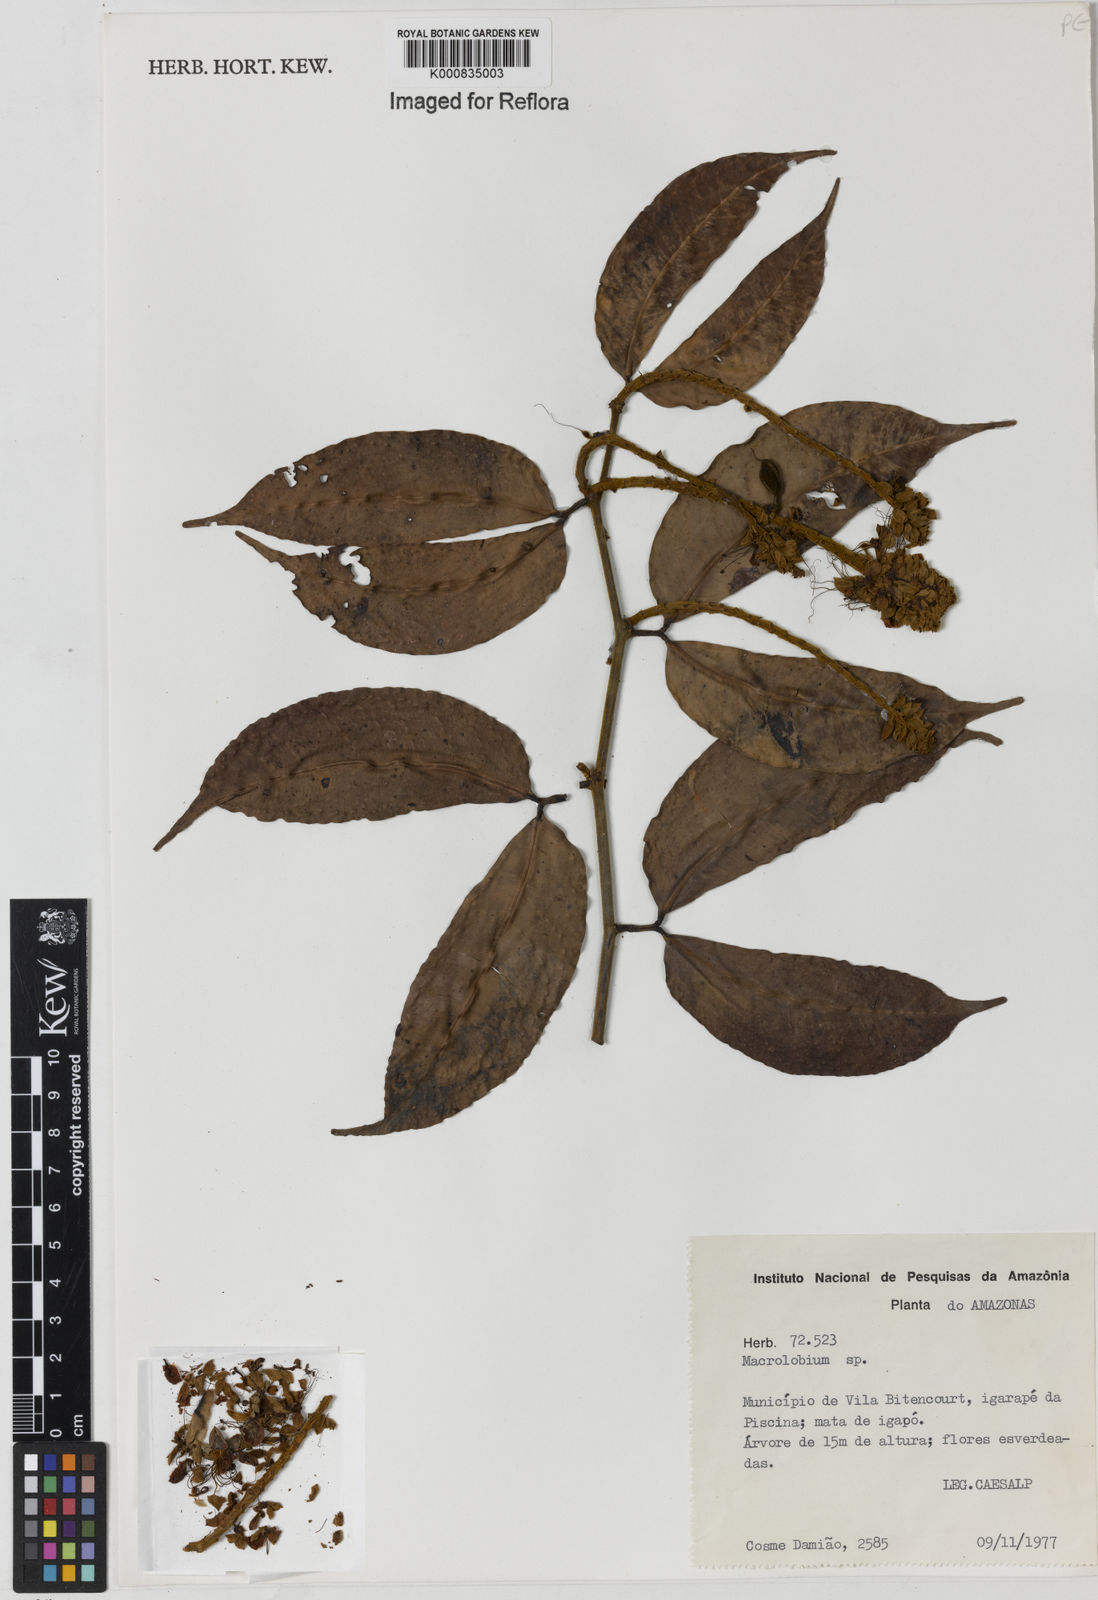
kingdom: Plantae
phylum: Tracheophyta
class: Magnoliopsida
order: Fabales
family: Fabaceae
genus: Macrolobium
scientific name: Macrolobium
